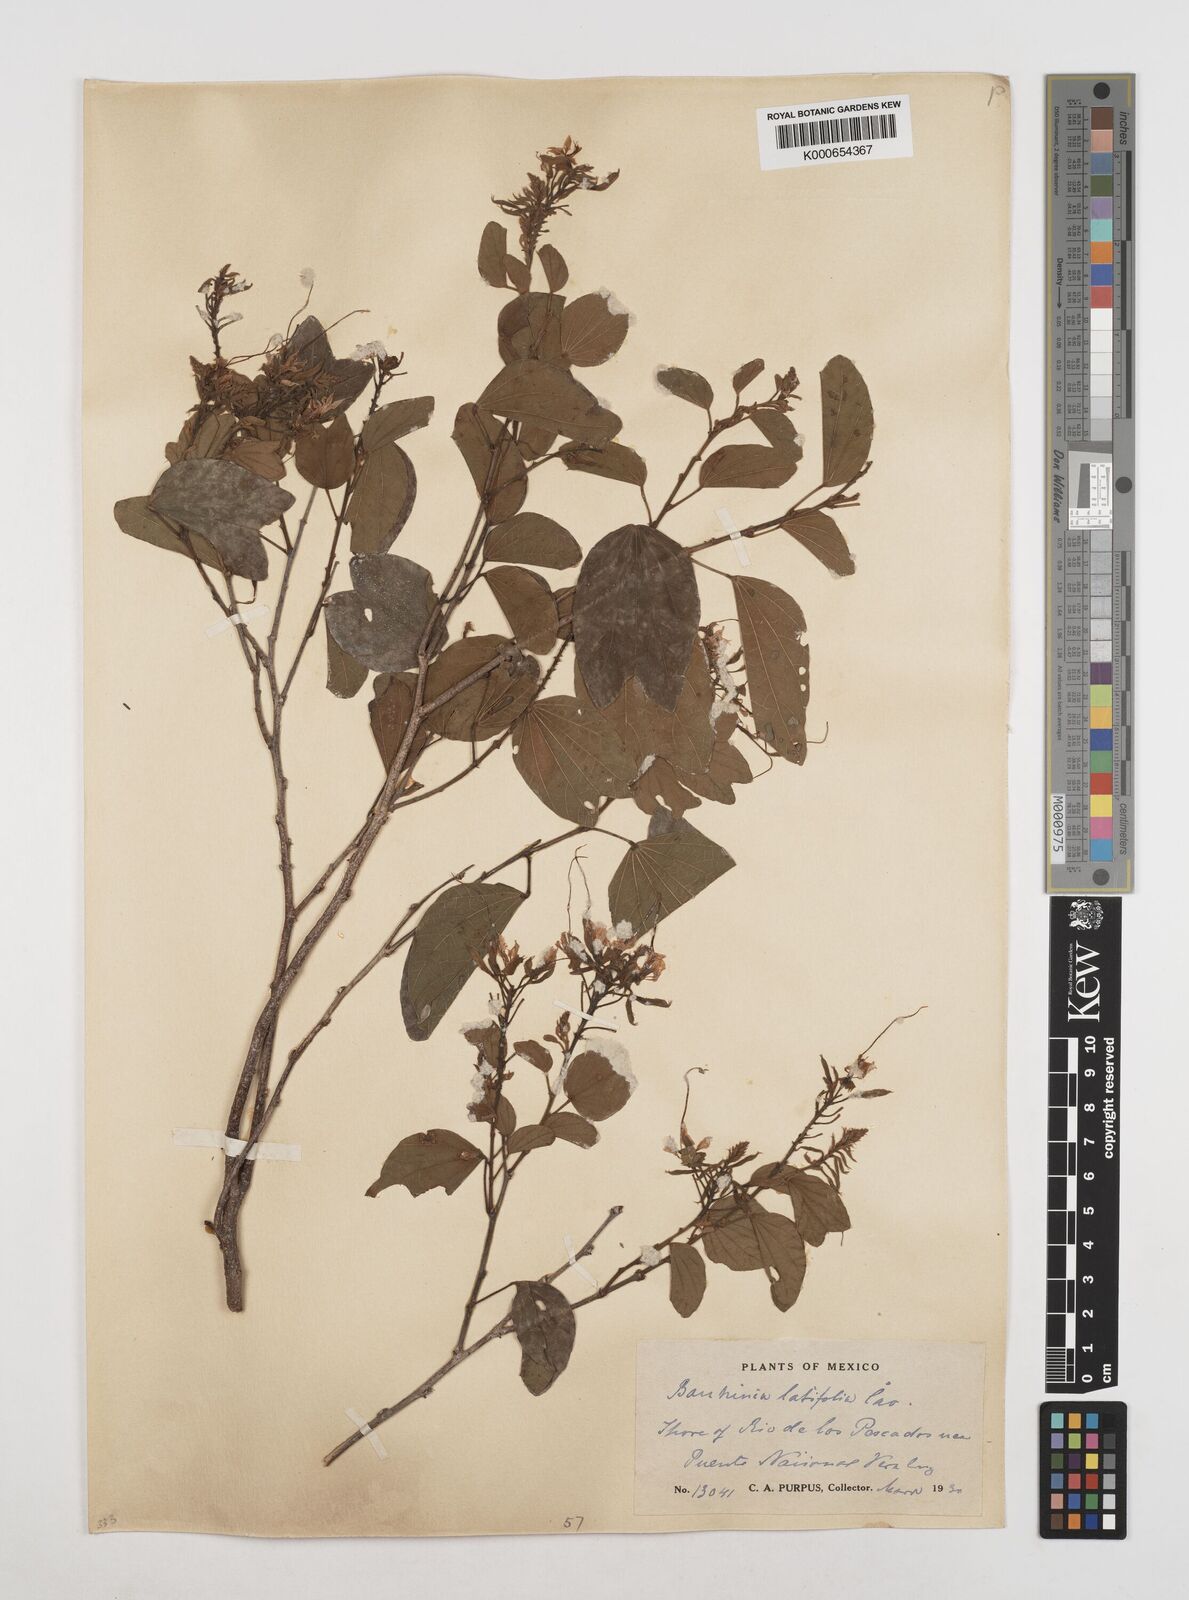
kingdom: Plantae
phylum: Tracheophyta
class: Magnoliopsida
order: Fabales
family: Fabaceae
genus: Bauhinia
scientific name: Bauhinia divaricata
